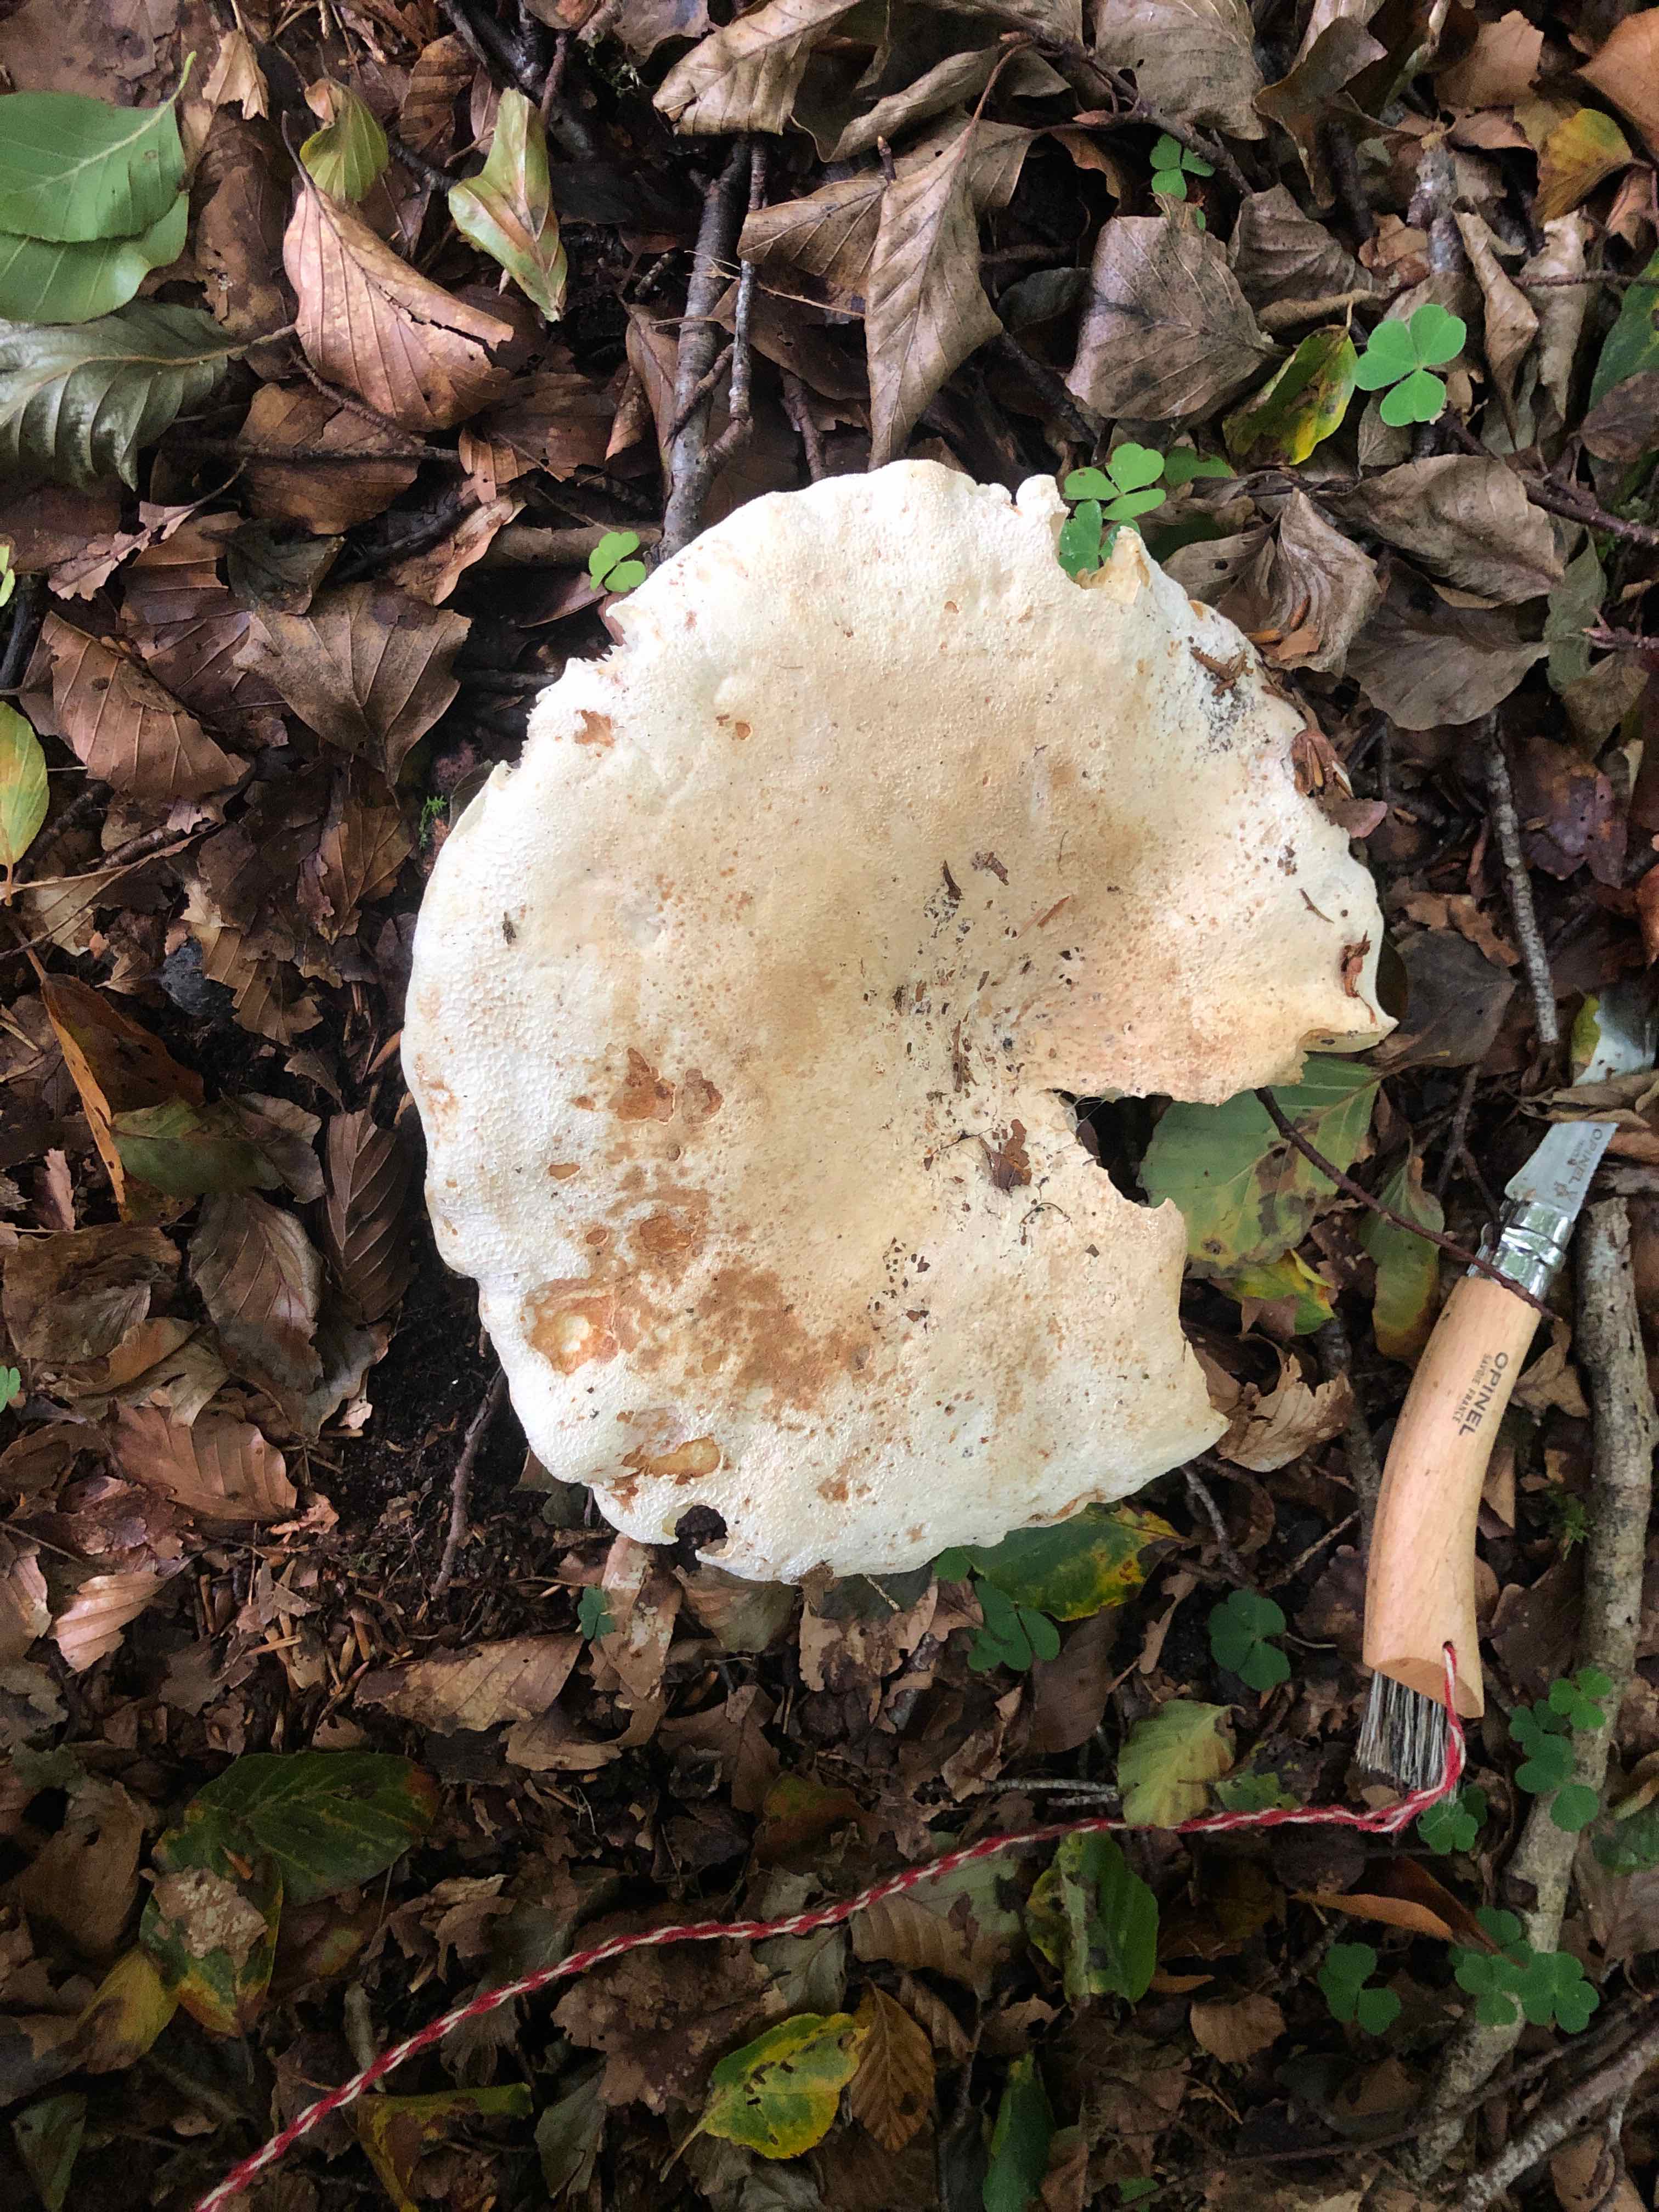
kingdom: Fungi
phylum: Basidiomycota
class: Agaricomycetes
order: Russulales
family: Russulaceae
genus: Lactifluus
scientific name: Lactifluus vellereus
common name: hvidfiltet mælkehat
